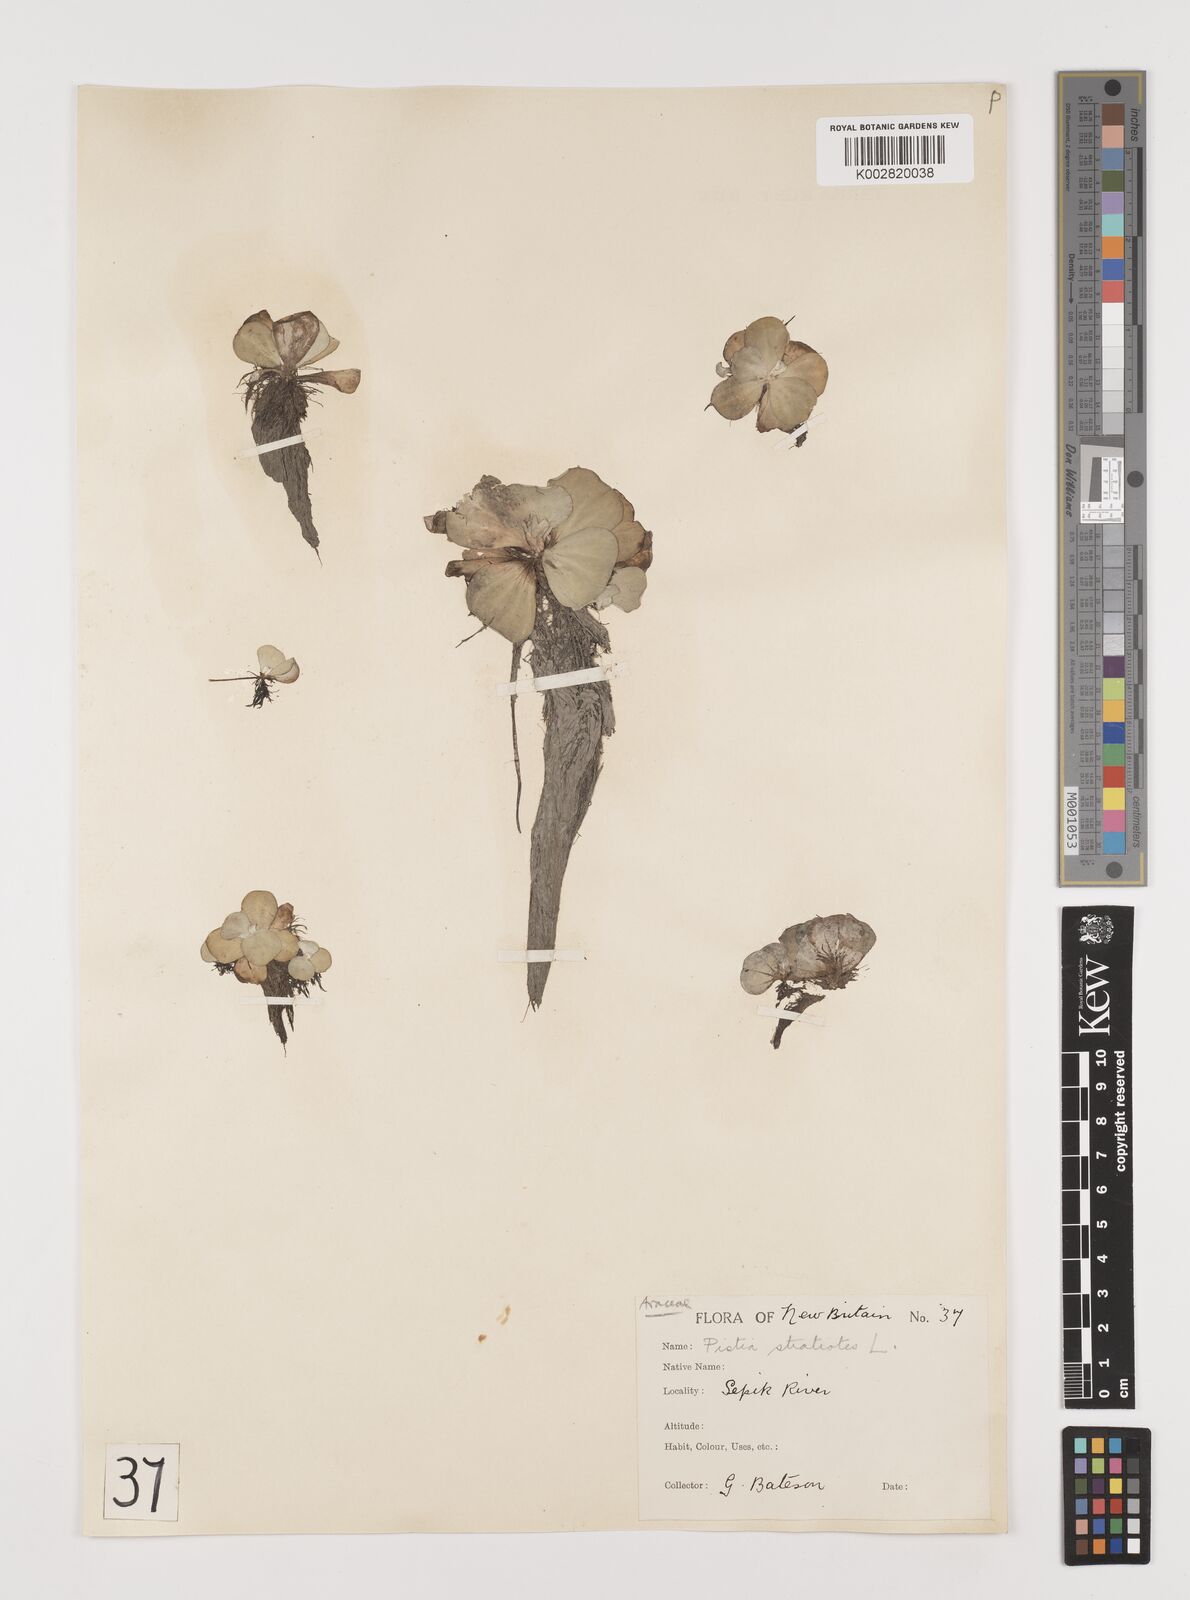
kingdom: Plantae
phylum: Tracheophyta
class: Liliopsida
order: Alismatales
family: Araceae
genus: Pistia
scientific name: Pistia stratiotes
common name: Water lettuce
